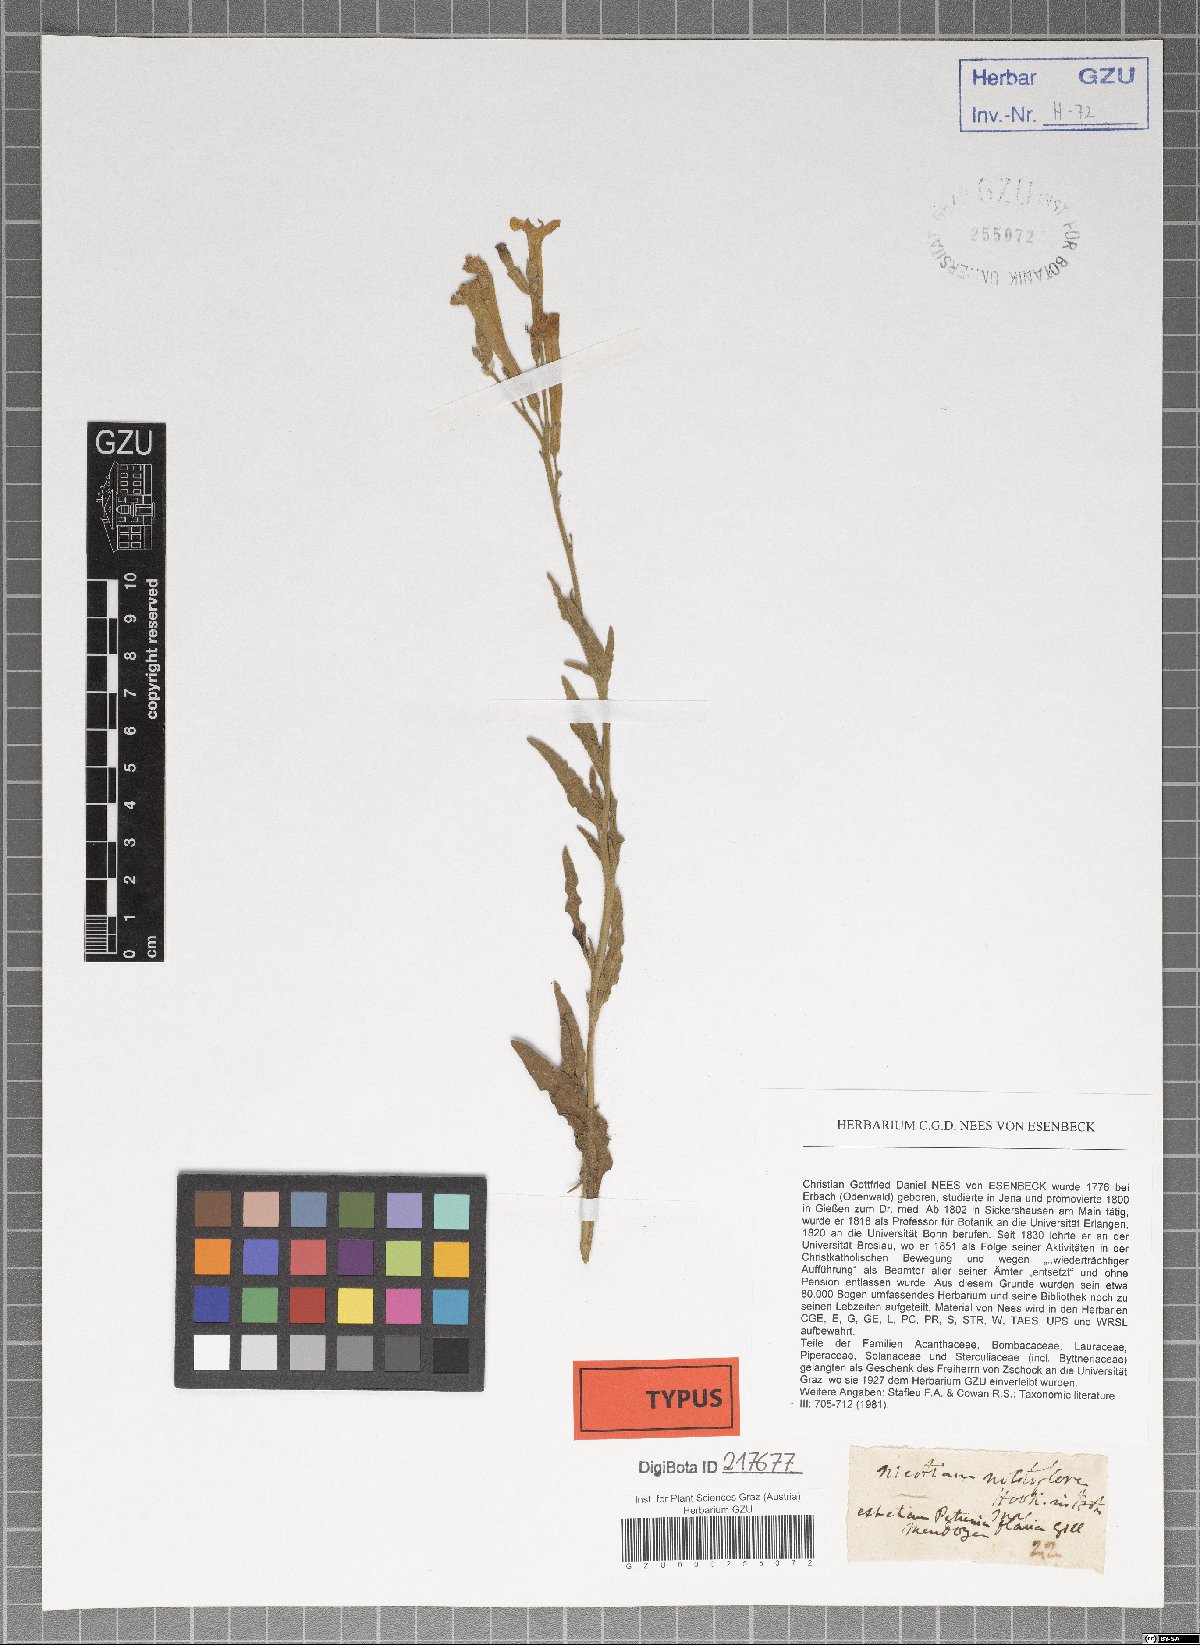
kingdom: Plantae
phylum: Tracheophyta
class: Magnoliopsida
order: Solanales
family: Solanaceae
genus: Nicotiana
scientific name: Nicotiana noctiflora
